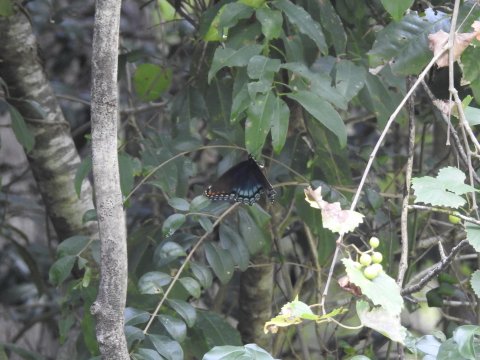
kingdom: Animalia
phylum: Arthropoda
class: Insecta
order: Lepidoptera
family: Nymphalidae
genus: Limenitis
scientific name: Limenitis arthemis
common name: Red-spotted Admiral
